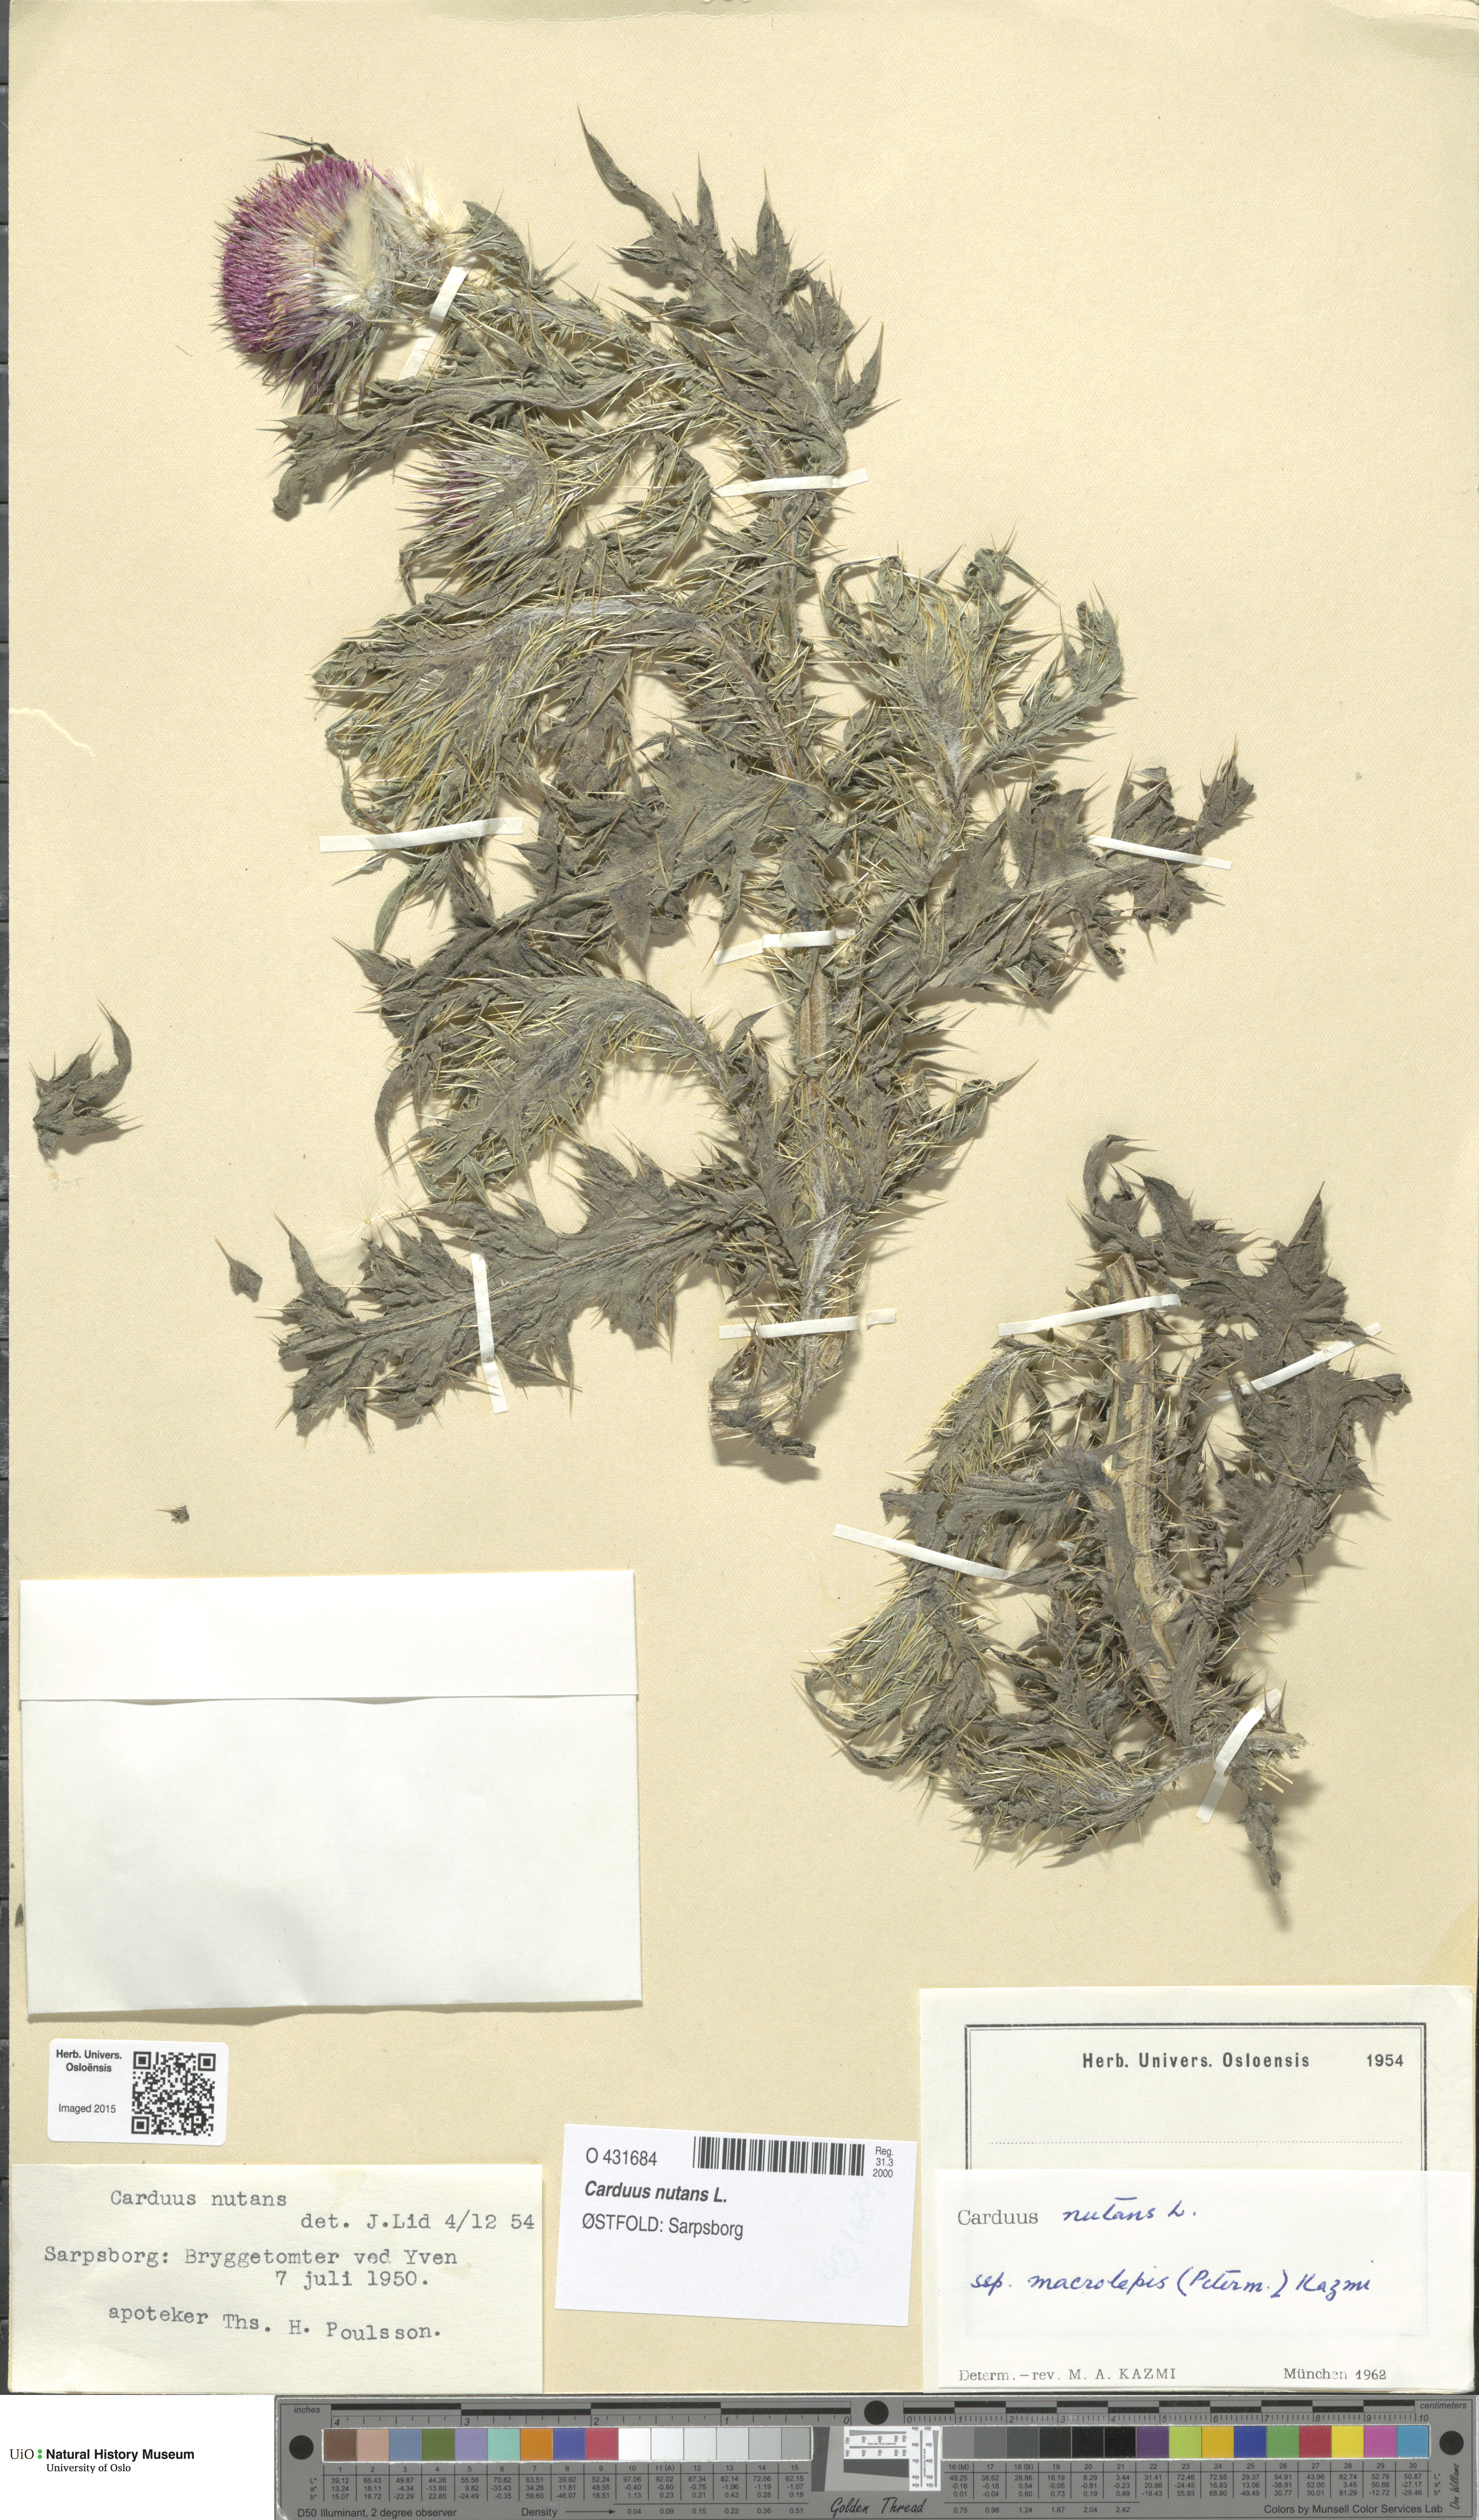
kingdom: Plantae
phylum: Tracheophyta
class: Magnoliopsida
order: Asterales
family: Asteraceae
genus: Carduus
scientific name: Carduus nutans
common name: Musk thistle
